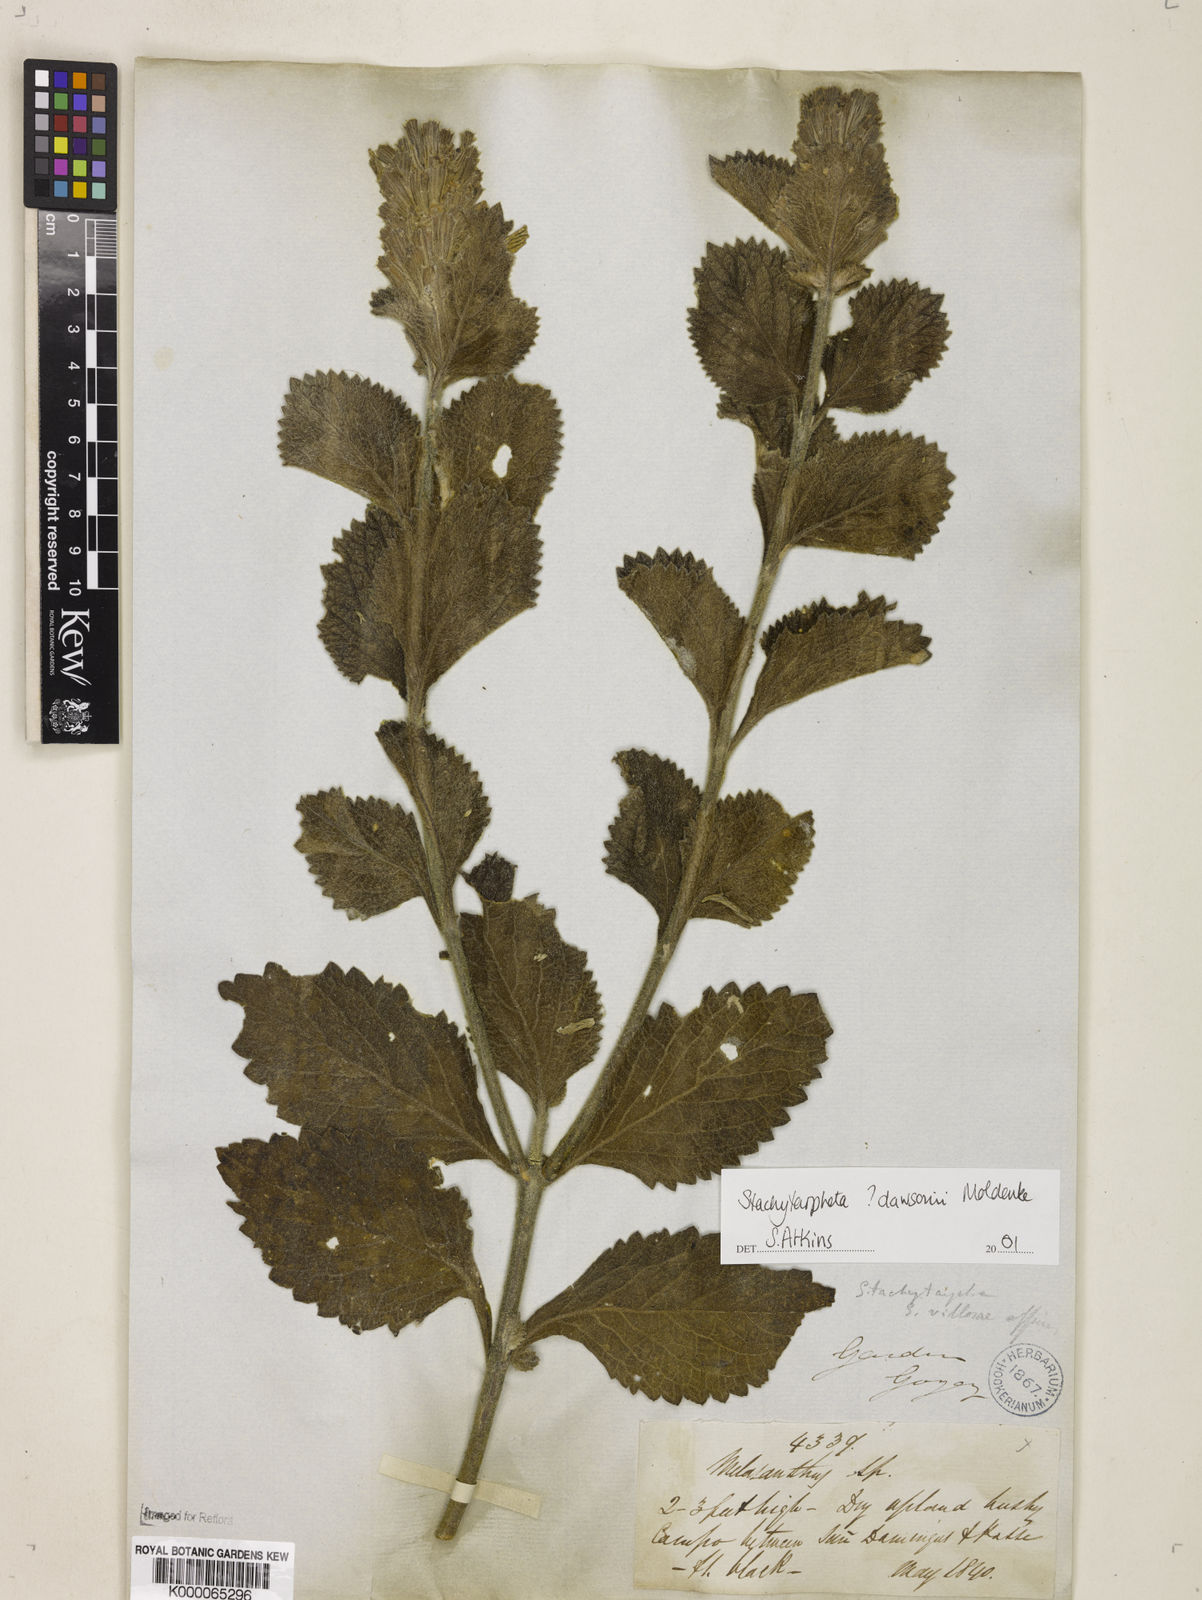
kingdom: Plantae
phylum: Tracheophyta
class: Magnoliopsida
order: Lamiales
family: Verbenaceae
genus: Stachytarpheta
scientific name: Stachytarpheta mollis
